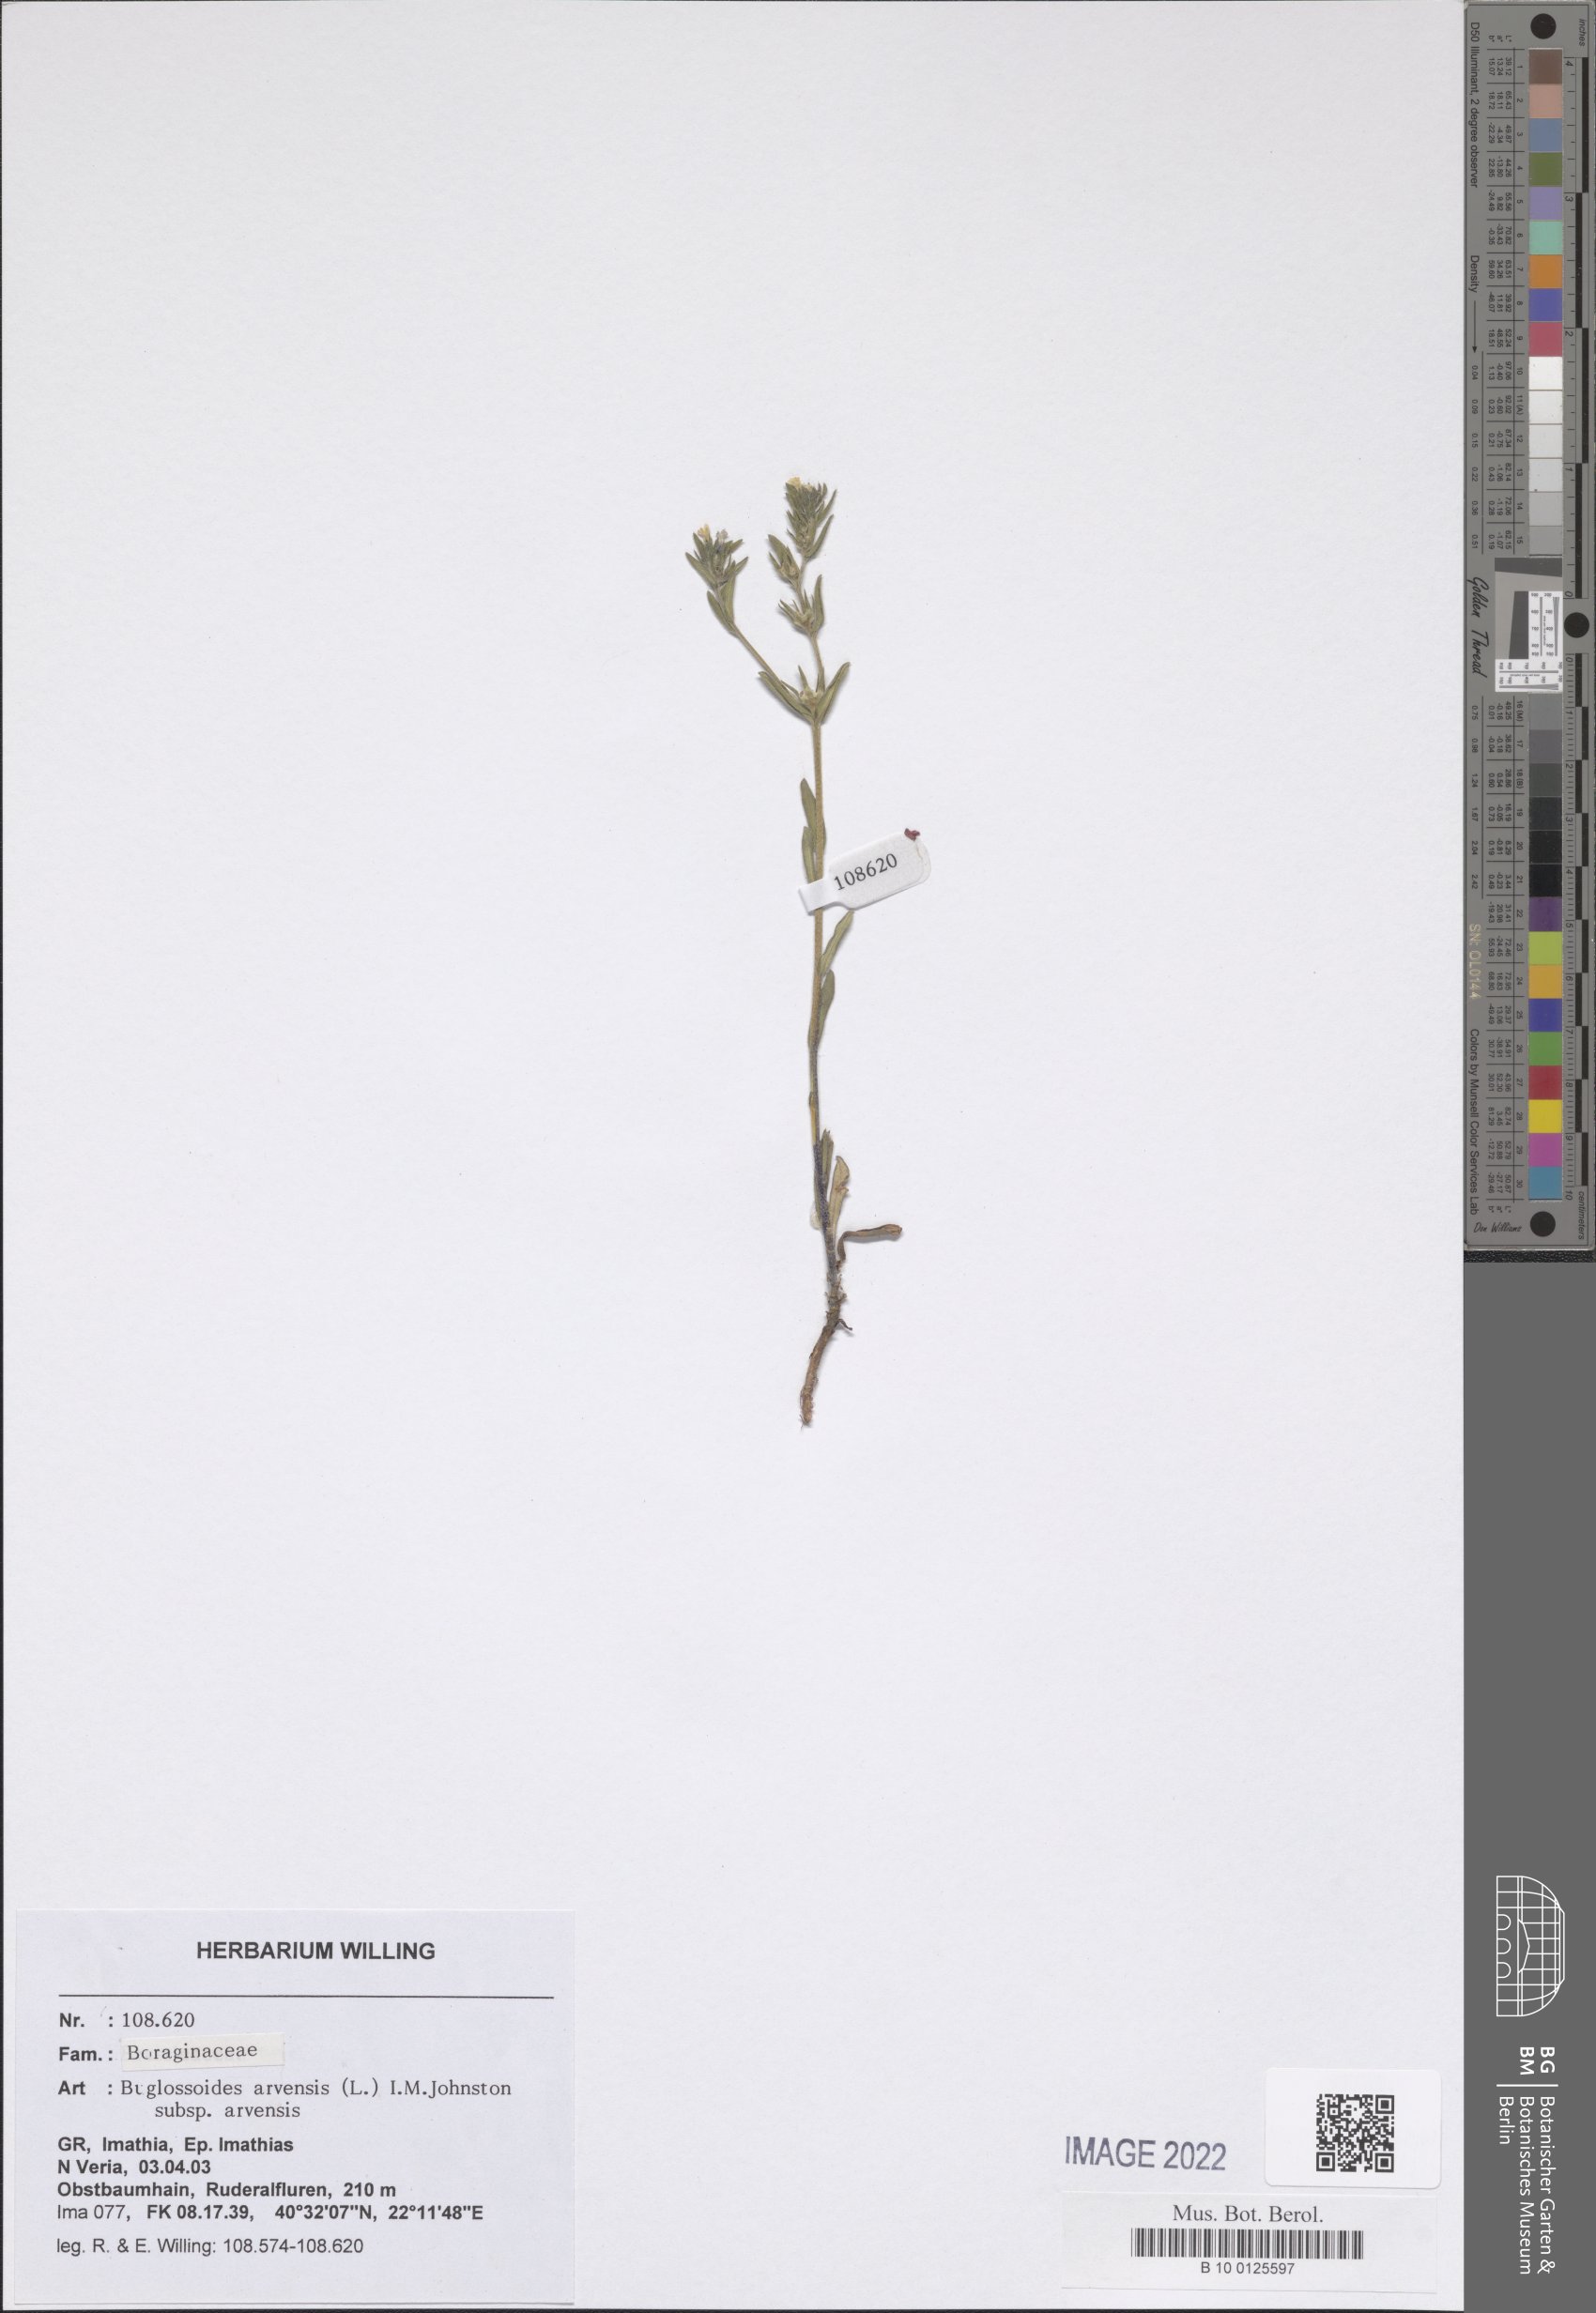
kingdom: Plantae
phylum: Tracheophyta
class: Magnoliopsida
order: Boraginales
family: Boraginaceae
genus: Buglossoides
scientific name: Buglossoides arvensis
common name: Corn gromwell
